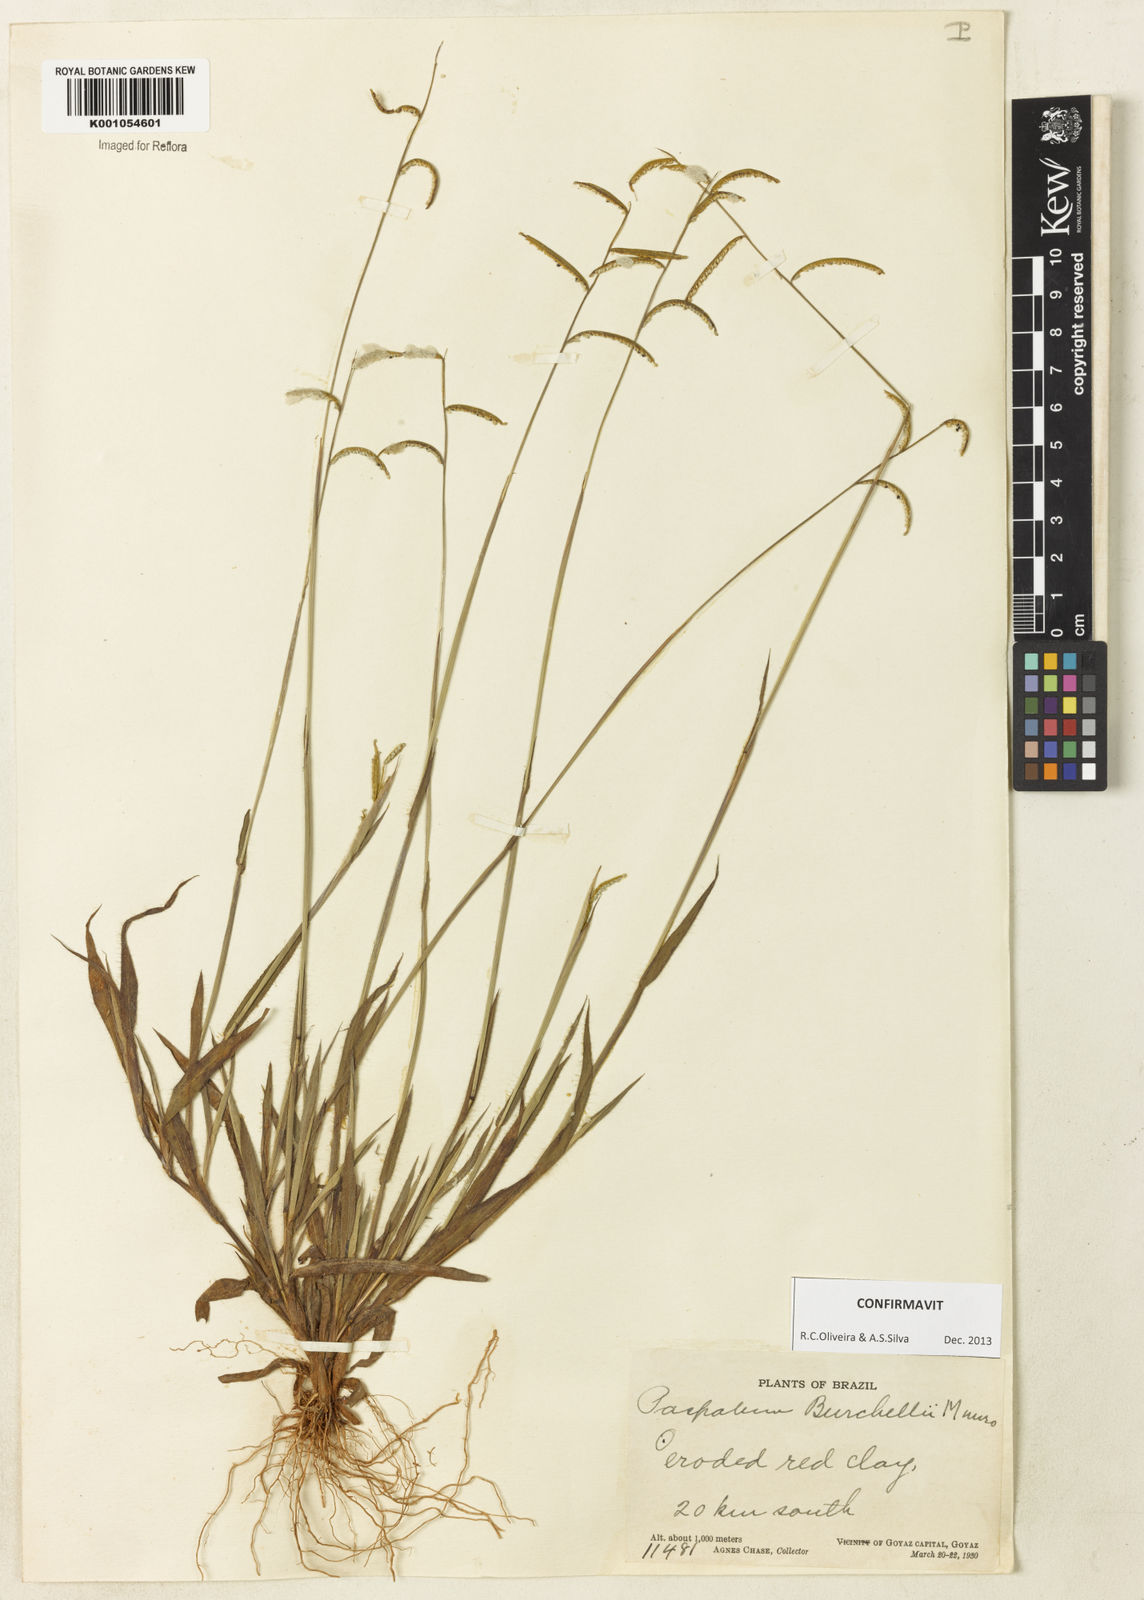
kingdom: Plantae
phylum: Tracheophyta
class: Liliopsida
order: Poales
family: Poaceae
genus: Paspalum
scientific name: Paspalum burchellii
